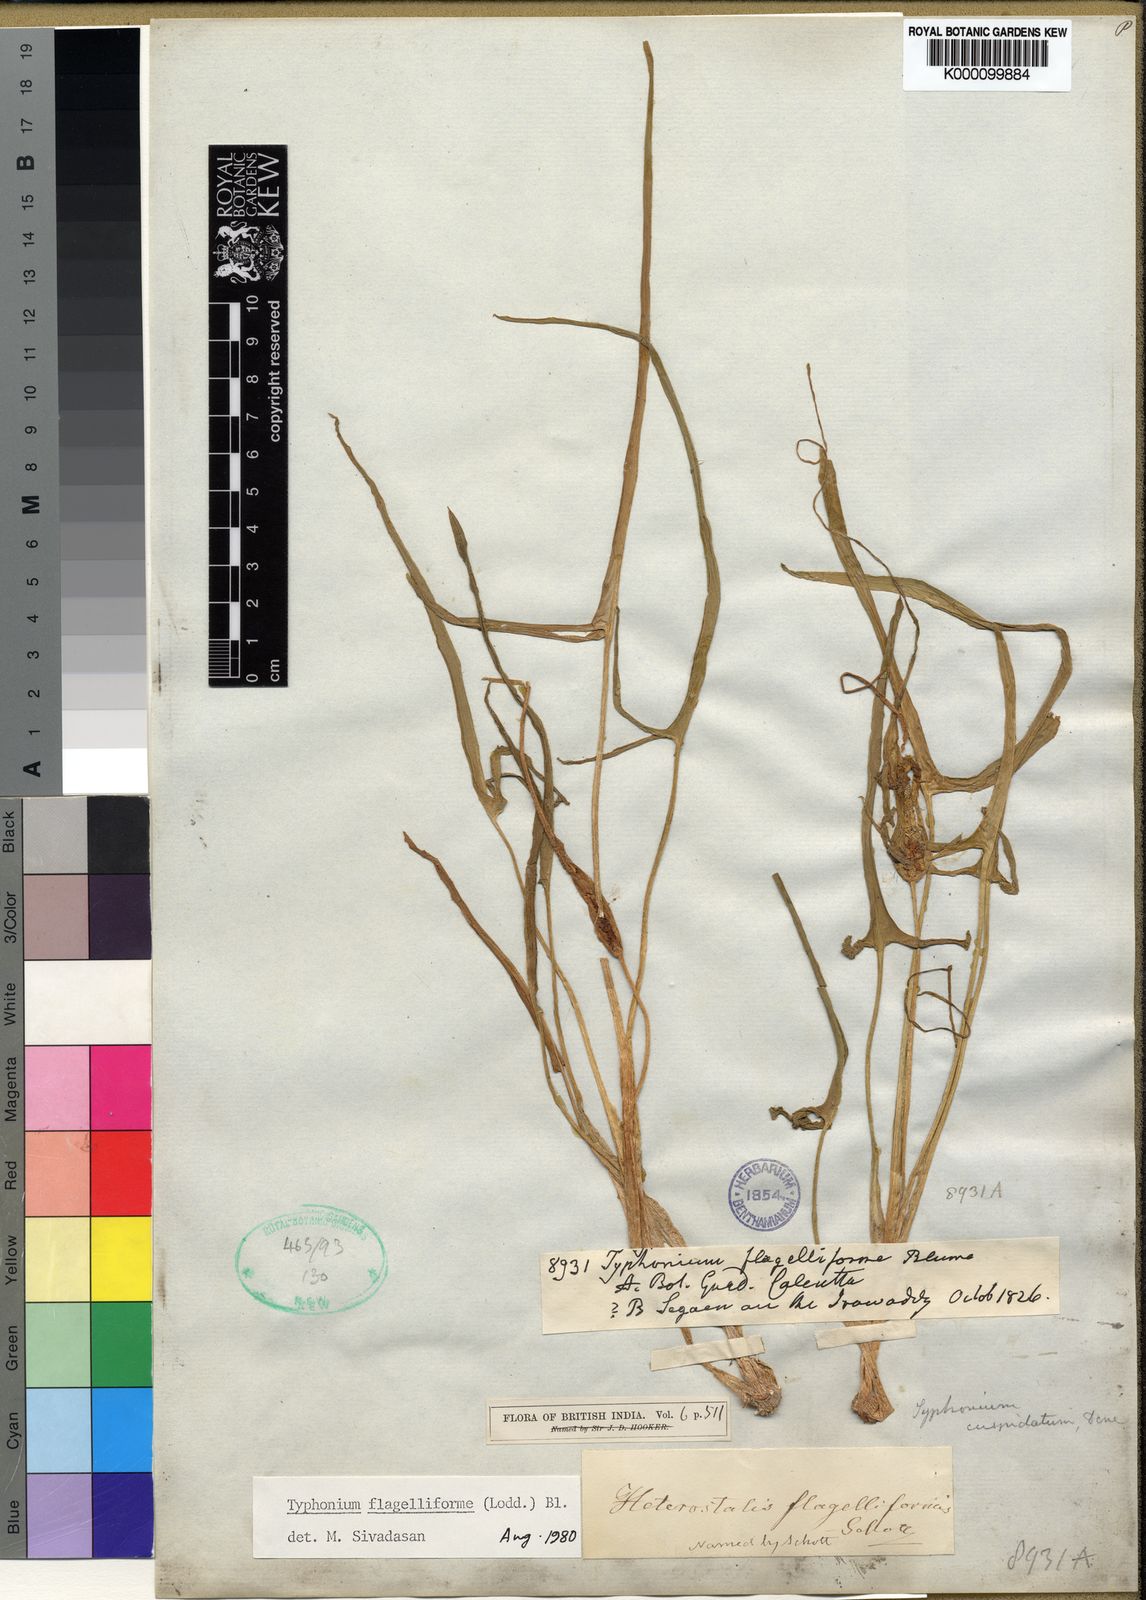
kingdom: Plantae
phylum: Tracheophyta
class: Liliopsida
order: Alismatales
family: Araceae
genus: Typhonium
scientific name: Typhonium flagelliforme
